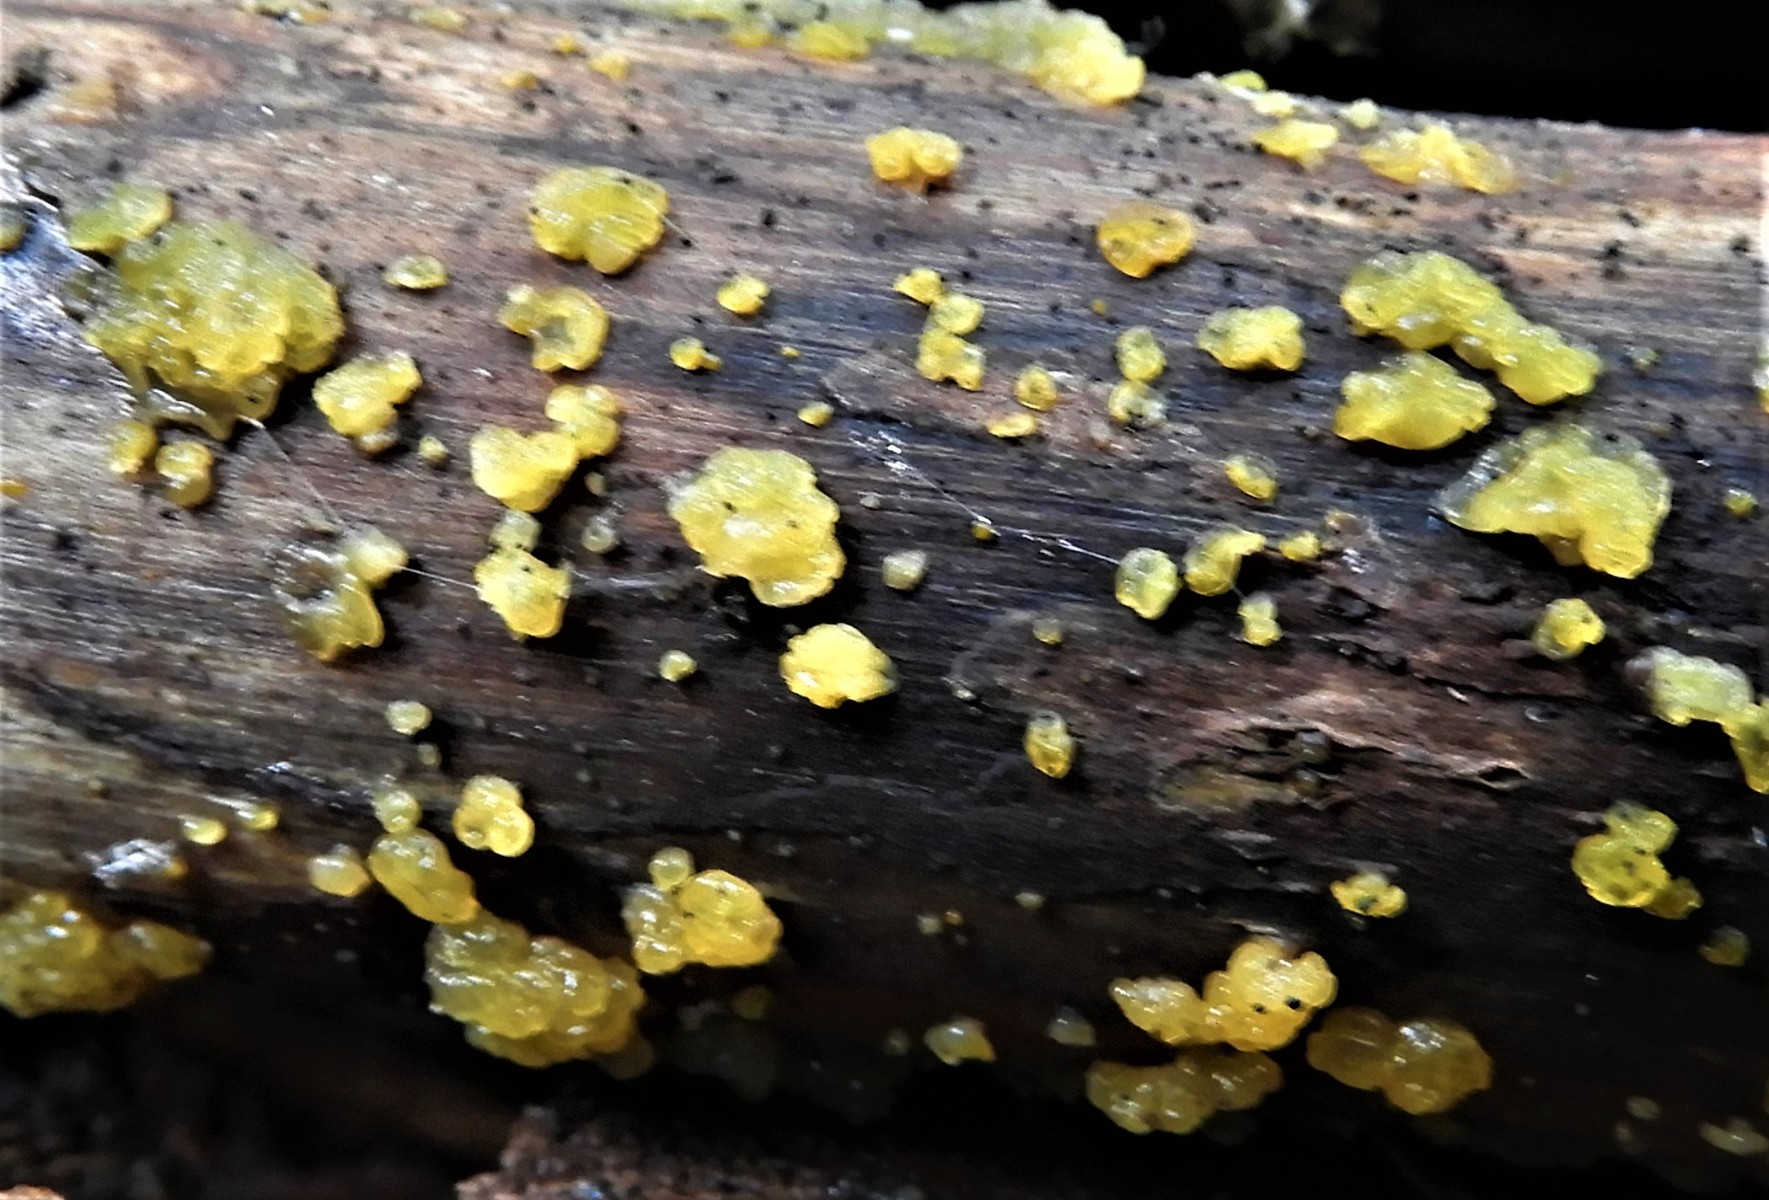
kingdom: Fungi
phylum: Basidiomycota
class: Dacrymycetes
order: Dacrymycetales
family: Dacrymycetaceae
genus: Dacrymyces
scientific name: Dacrymyces lacrymalis
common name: rynket tåresvamp
